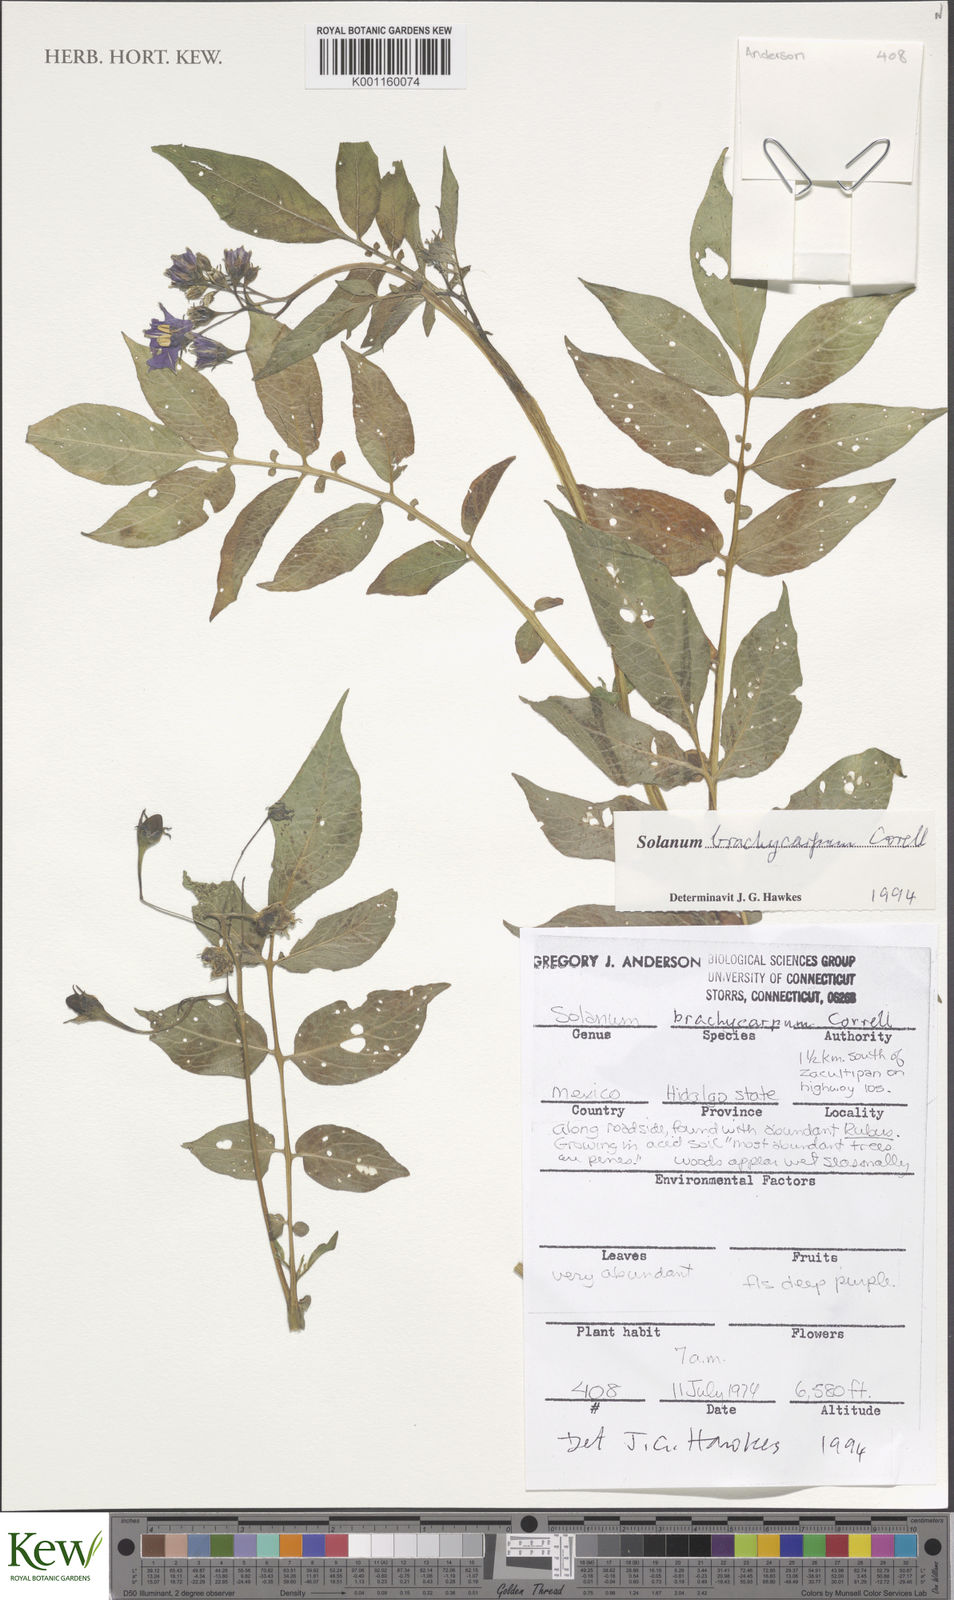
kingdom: Plantae
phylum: Tracheophyta
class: Magnoliopsida
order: Solanales
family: Solanaceae
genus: Solanum
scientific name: Solanum oxycarpum
